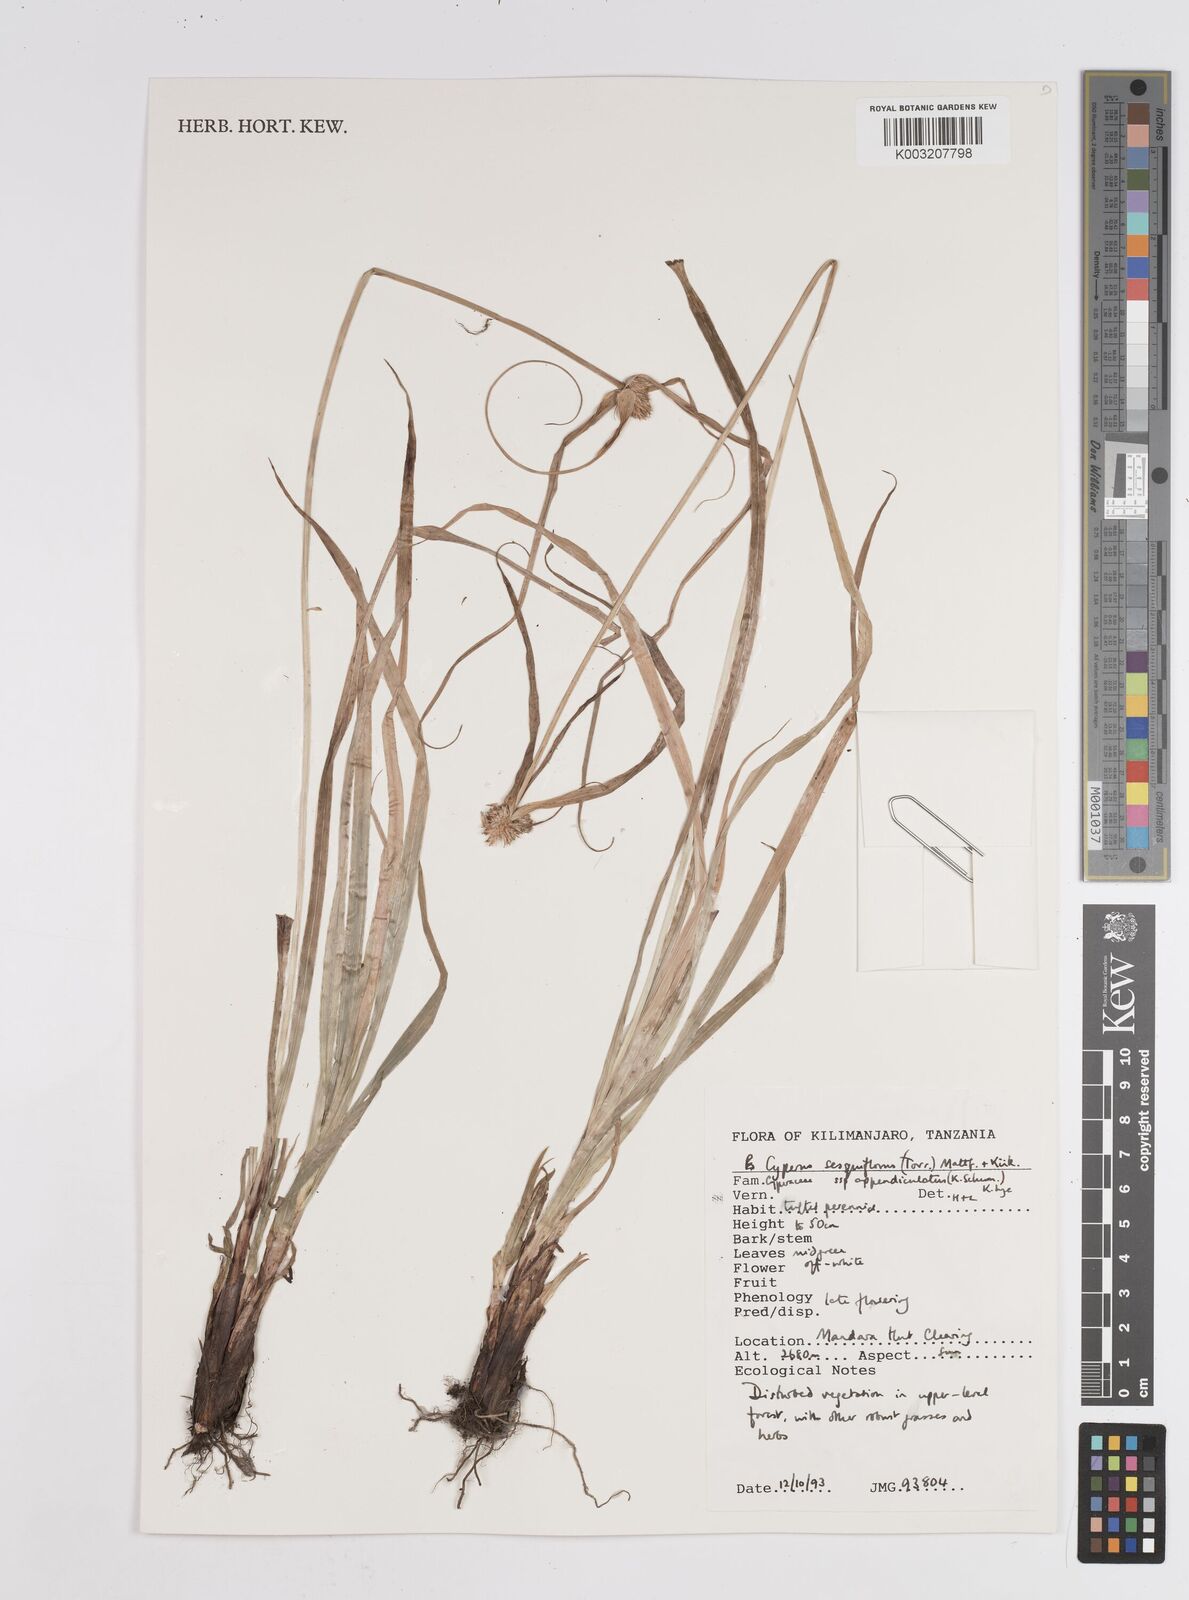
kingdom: Plantae
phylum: Tracheophyta
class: Liliopsida
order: Poales
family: Cyperaceae
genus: Cyperus
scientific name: Cyperus
